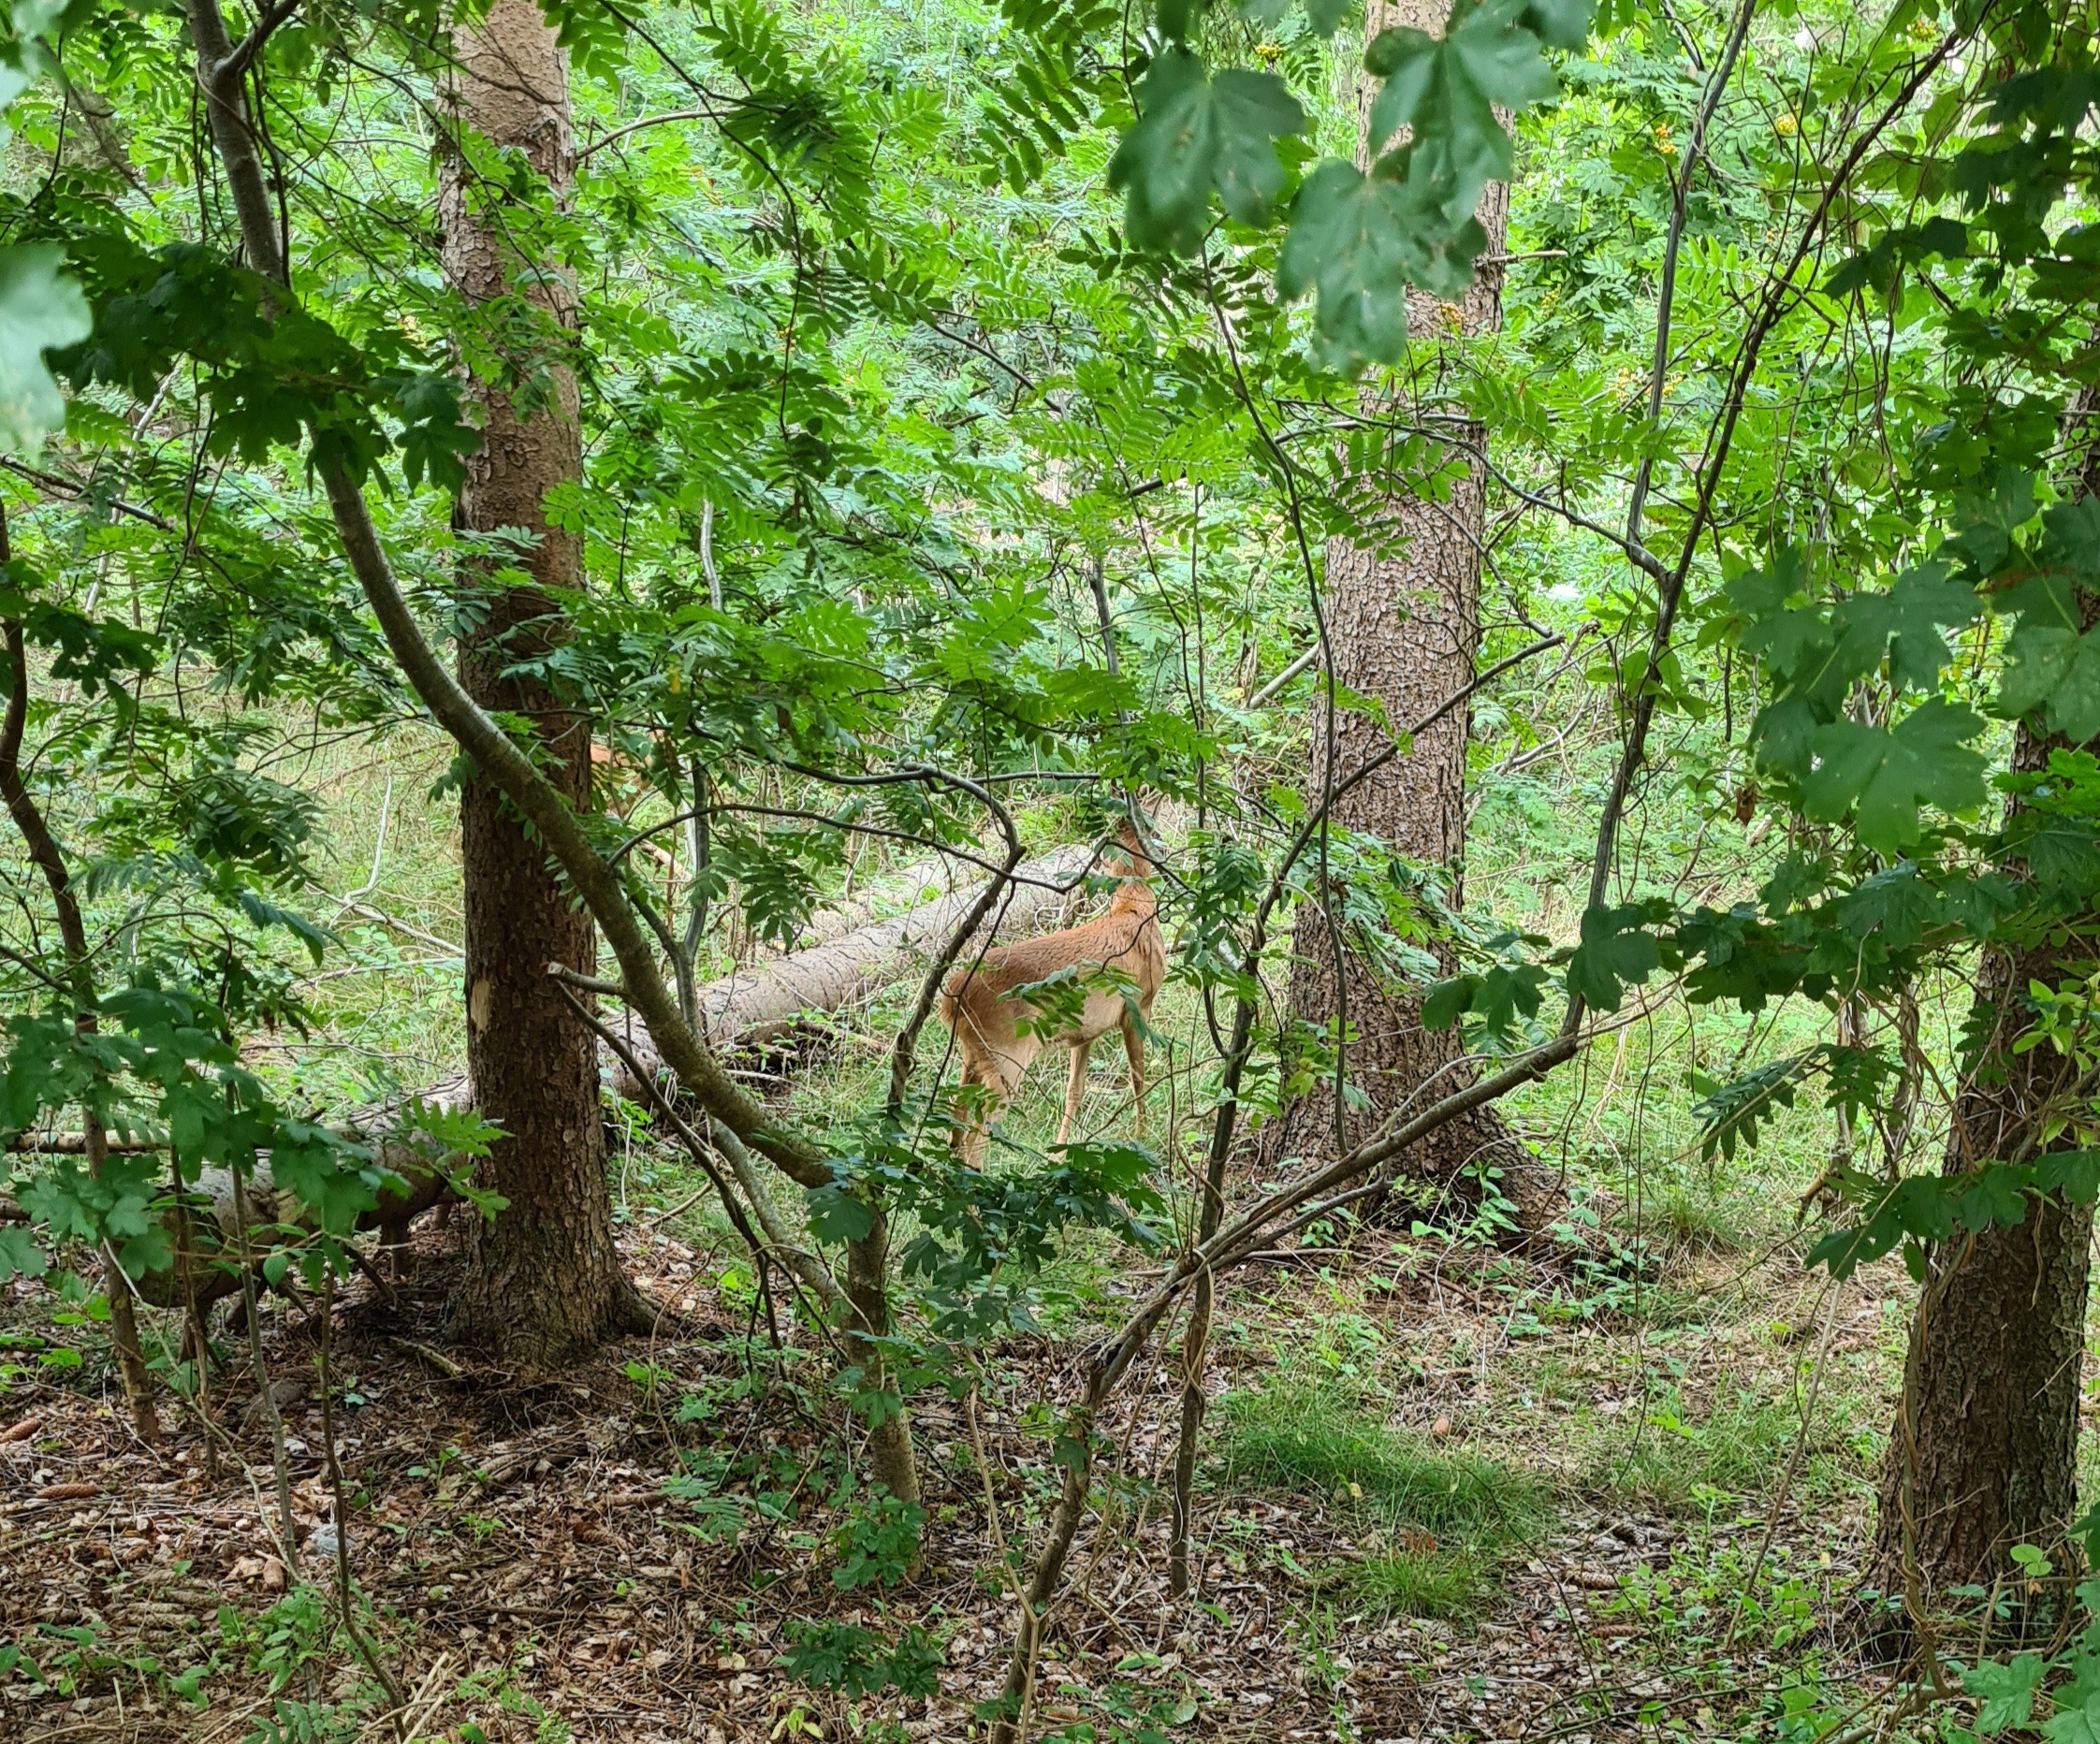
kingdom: Animalia
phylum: Chordata
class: Mammalia
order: Artiodactyla
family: Cervidae
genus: Capreolus
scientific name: Capreolus capreolus
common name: Rådyr
